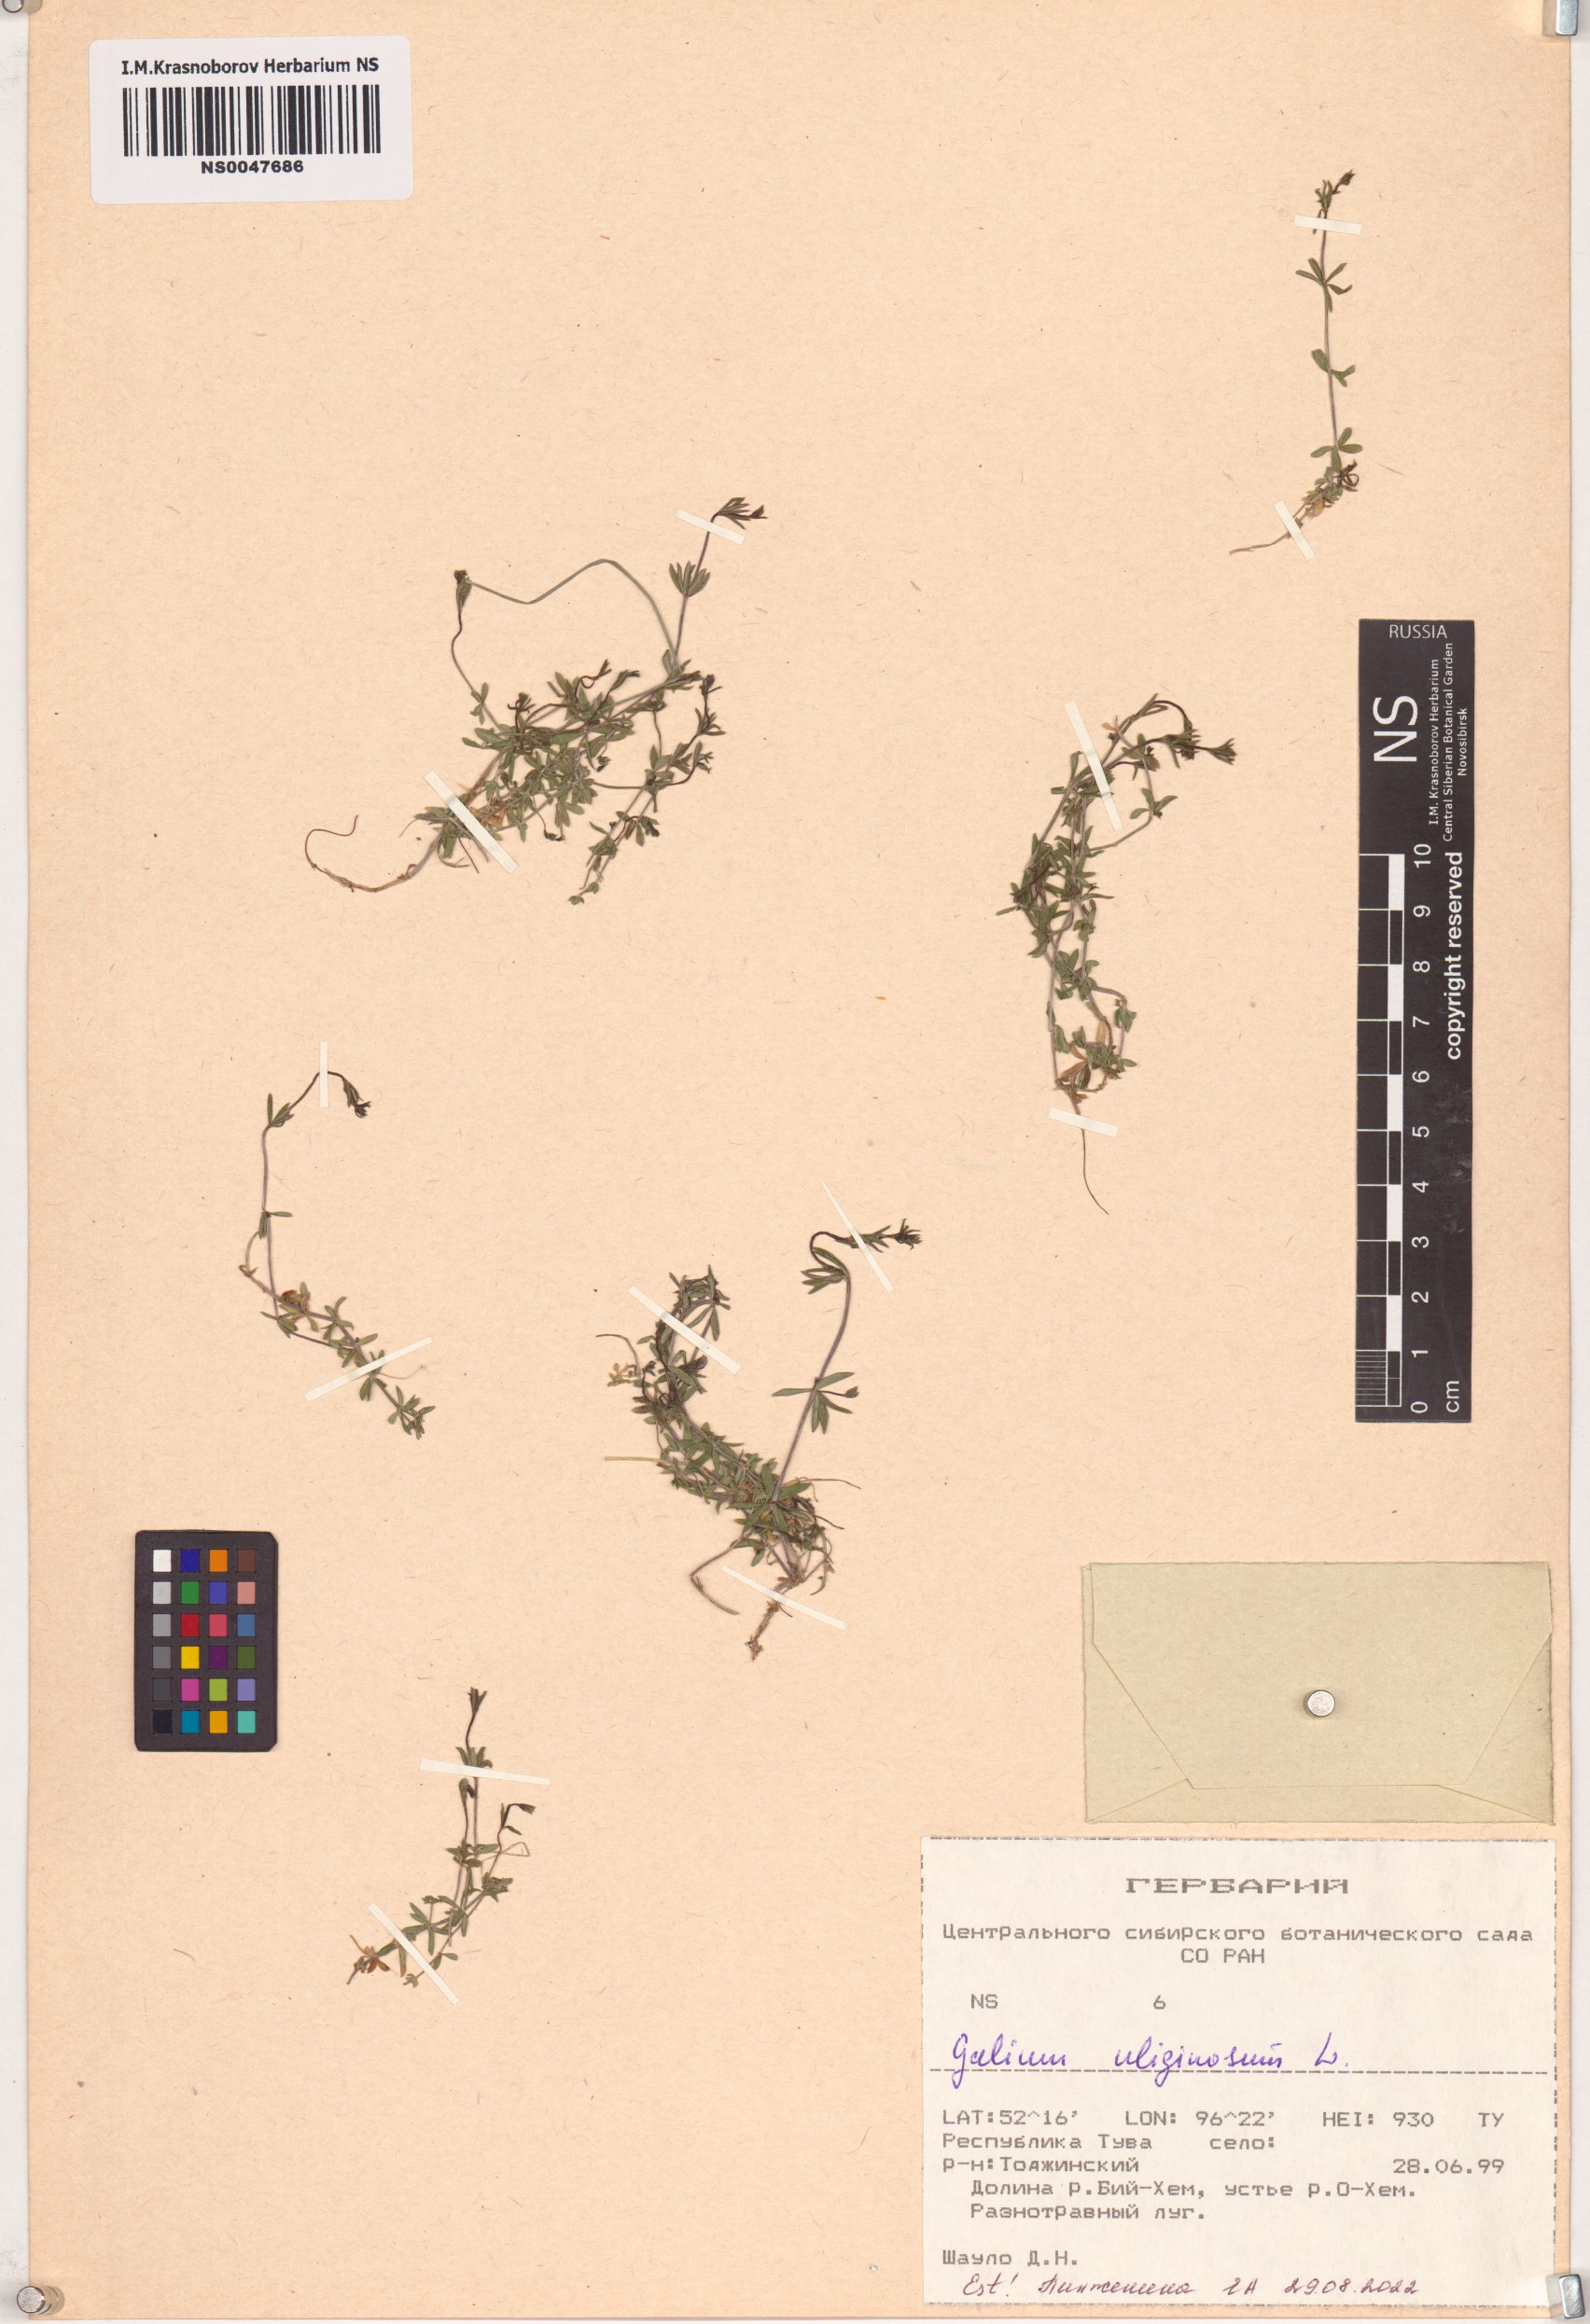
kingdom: Plantae
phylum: Tracheophyta
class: Magnoliopsida
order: Gentianales
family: Rubiaceae
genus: Galium
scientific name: Galium uliginosum
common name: Fen bedstraw
